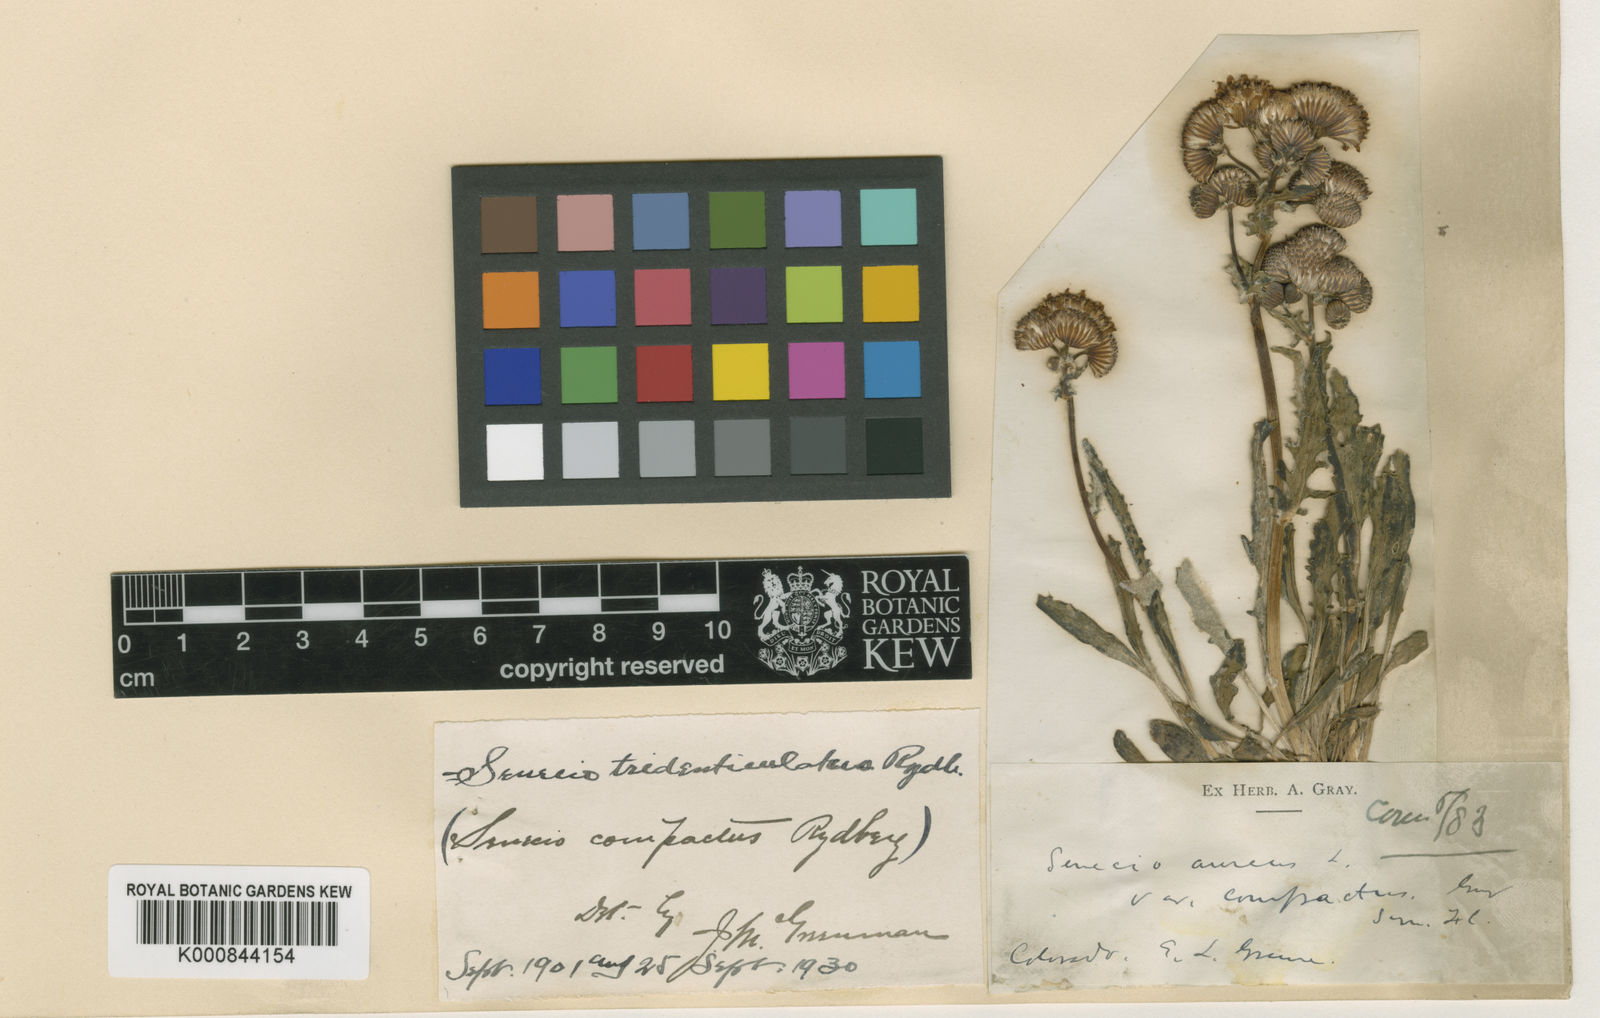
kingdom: Plantae
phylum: Tracheophyta
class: Magnoliopsida
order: Asterales
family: Asteraceae
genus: Packera
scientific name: Packera
